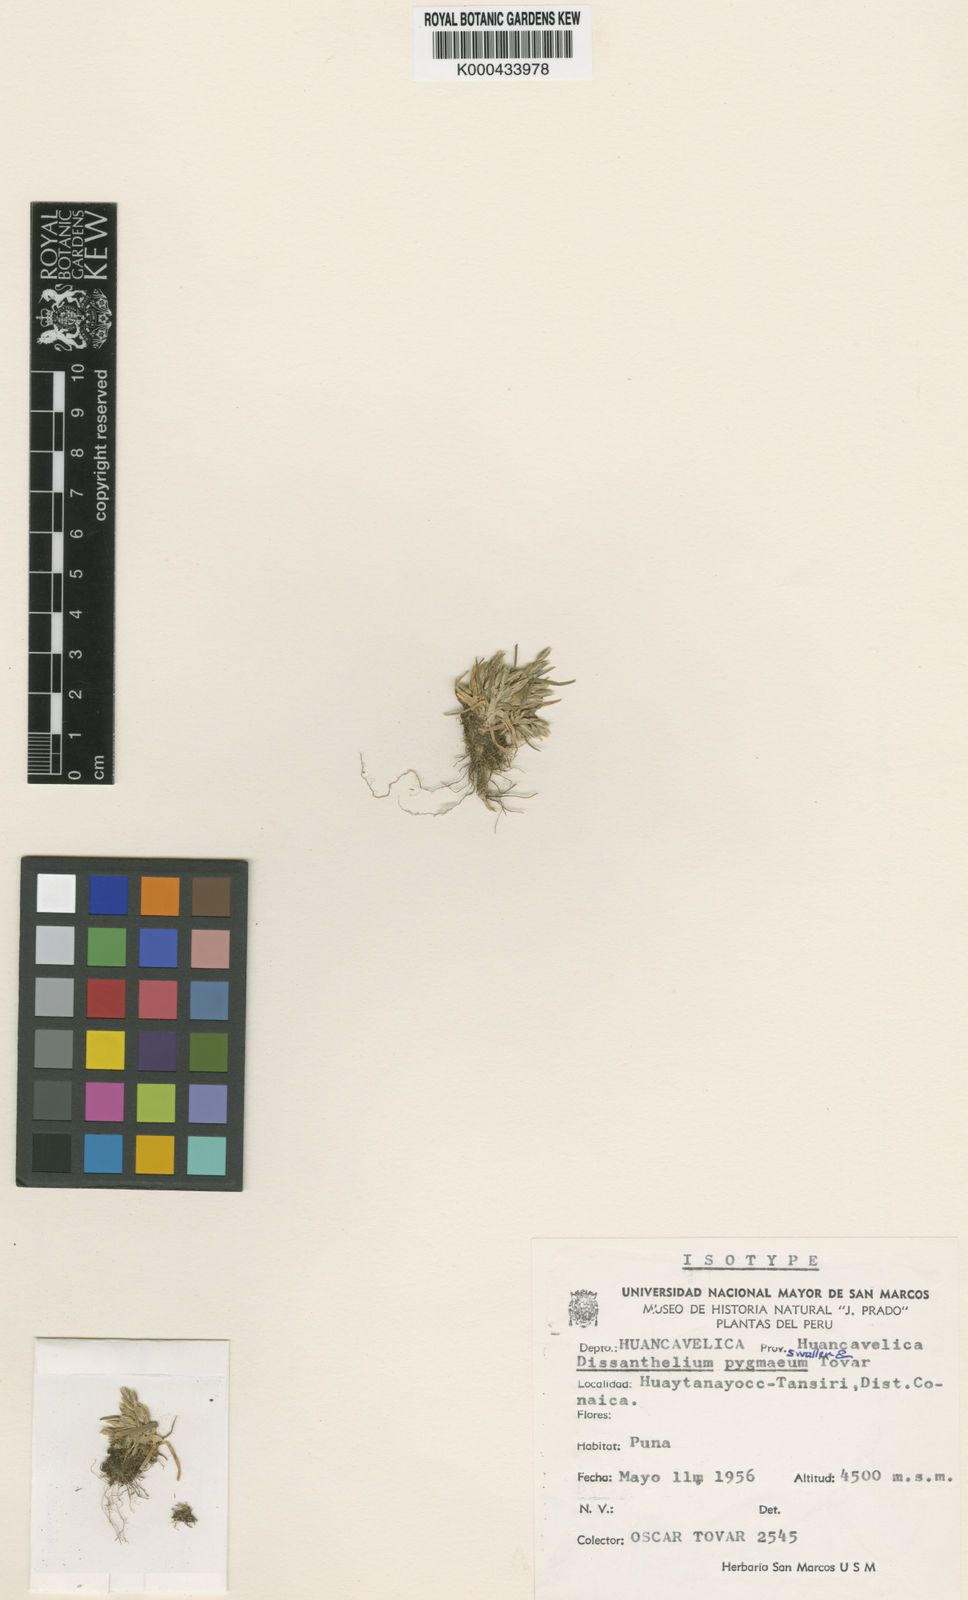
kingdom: Plantae
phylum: Tracheophyta
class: Liliopsida
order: Poales
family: Poaceae
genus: Poa
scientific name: Poa deminuta
